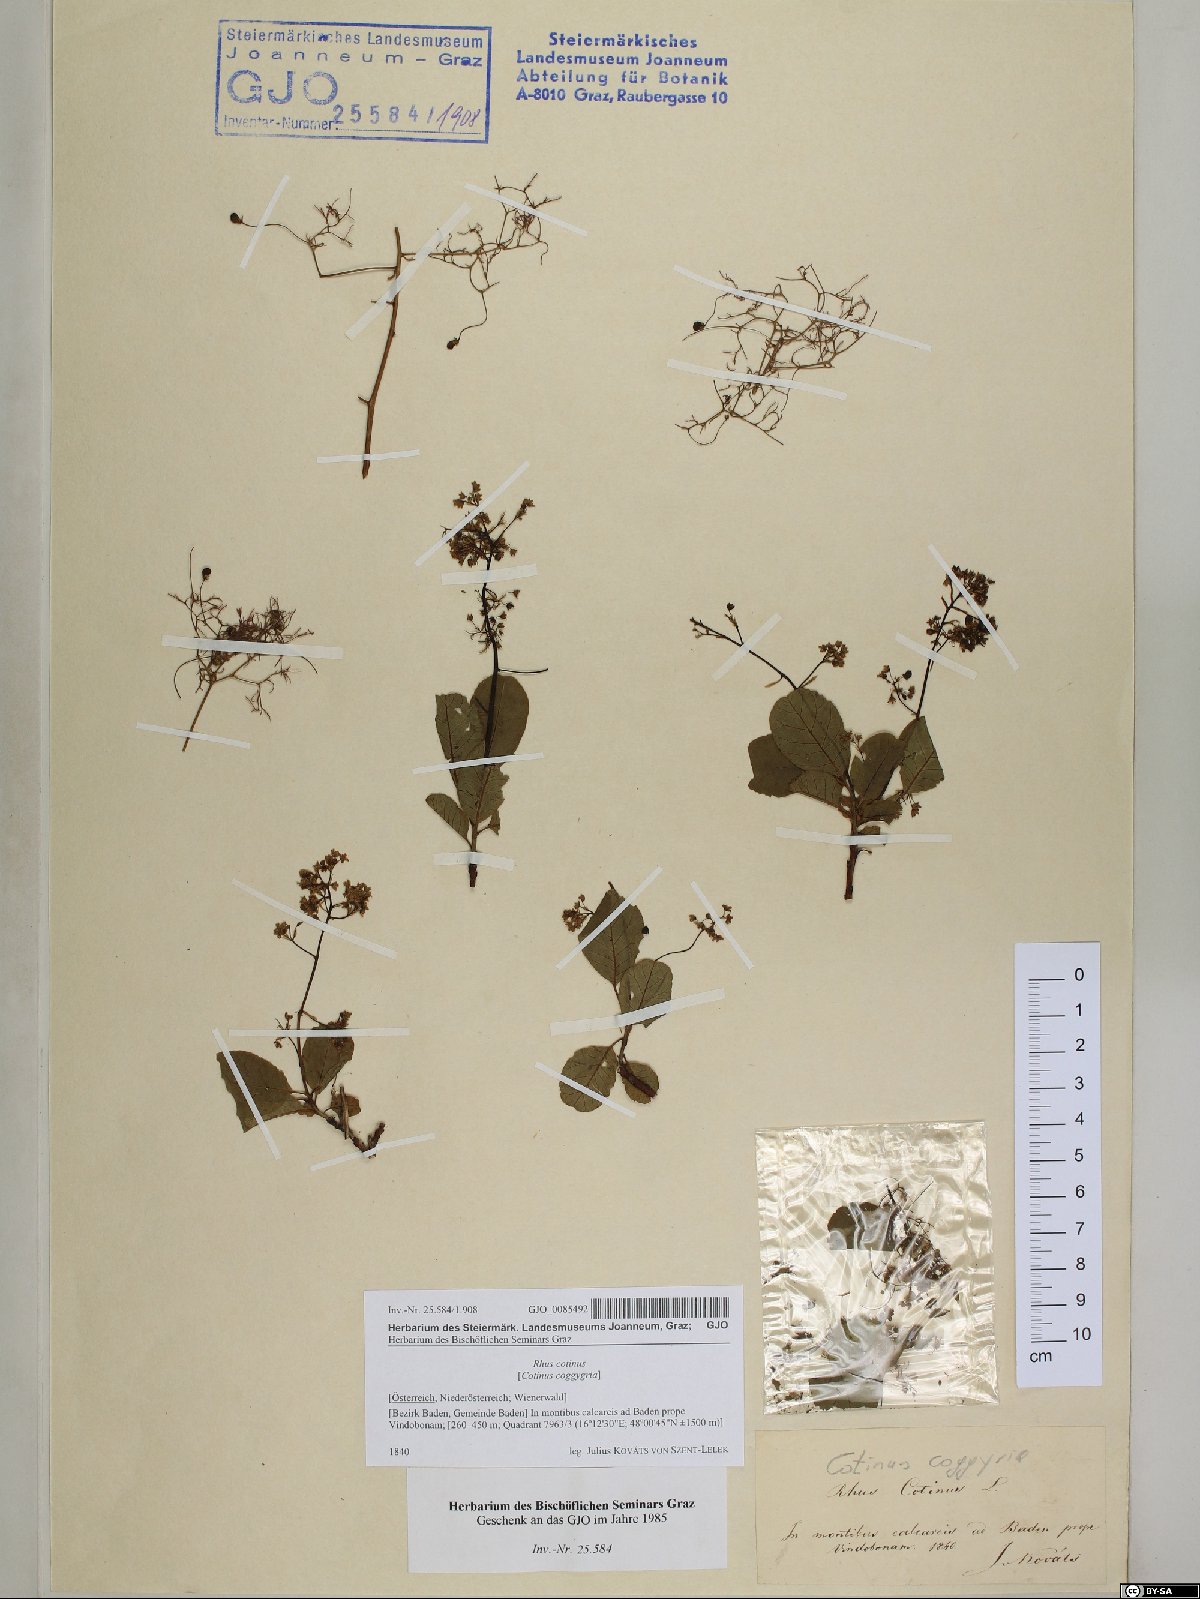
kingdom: Plantae
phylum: Tracheophyta
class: Magnoliopsida
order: Sapindales
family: Anacardiaceae
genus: Cotinus
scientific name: Cotinus coggygria
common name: Smoke-tree
